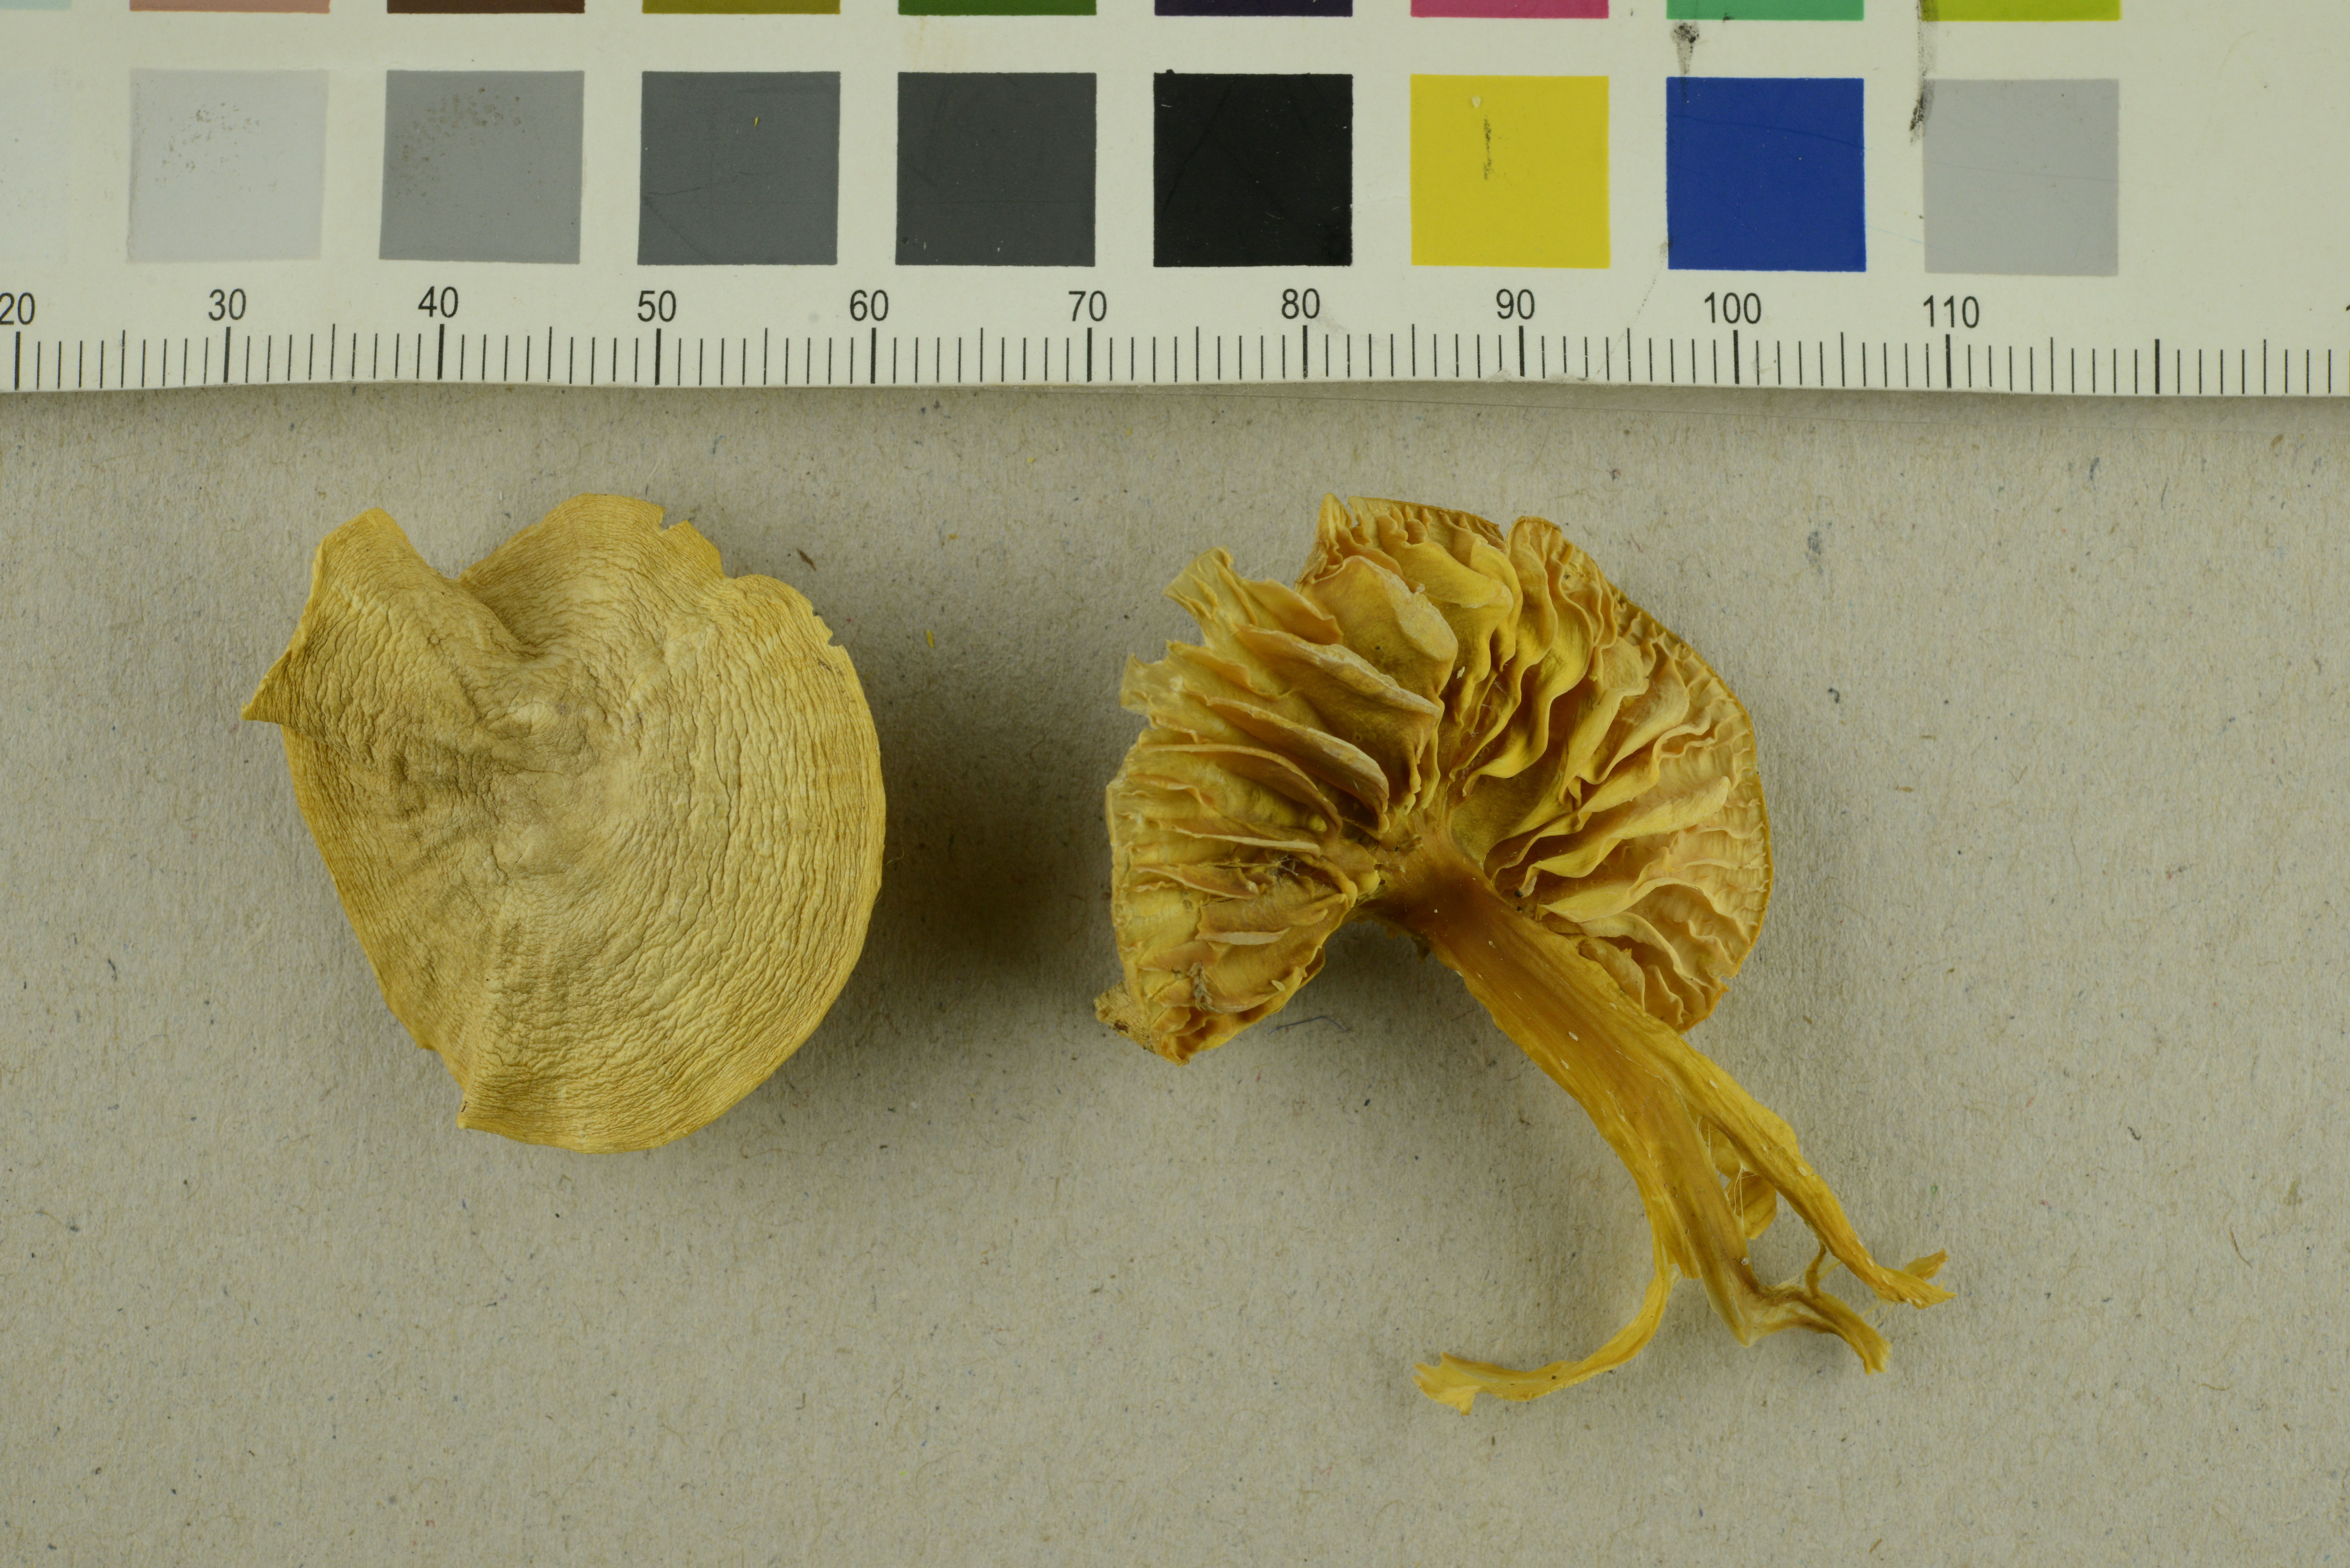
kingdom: Fungi
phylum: Basidiomycota
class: Agaricomycetes
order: Agaricales
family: Hygrophoraceae
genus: Hygrocybe
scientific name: Hygrocybe quieta
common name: Oily waxcap
